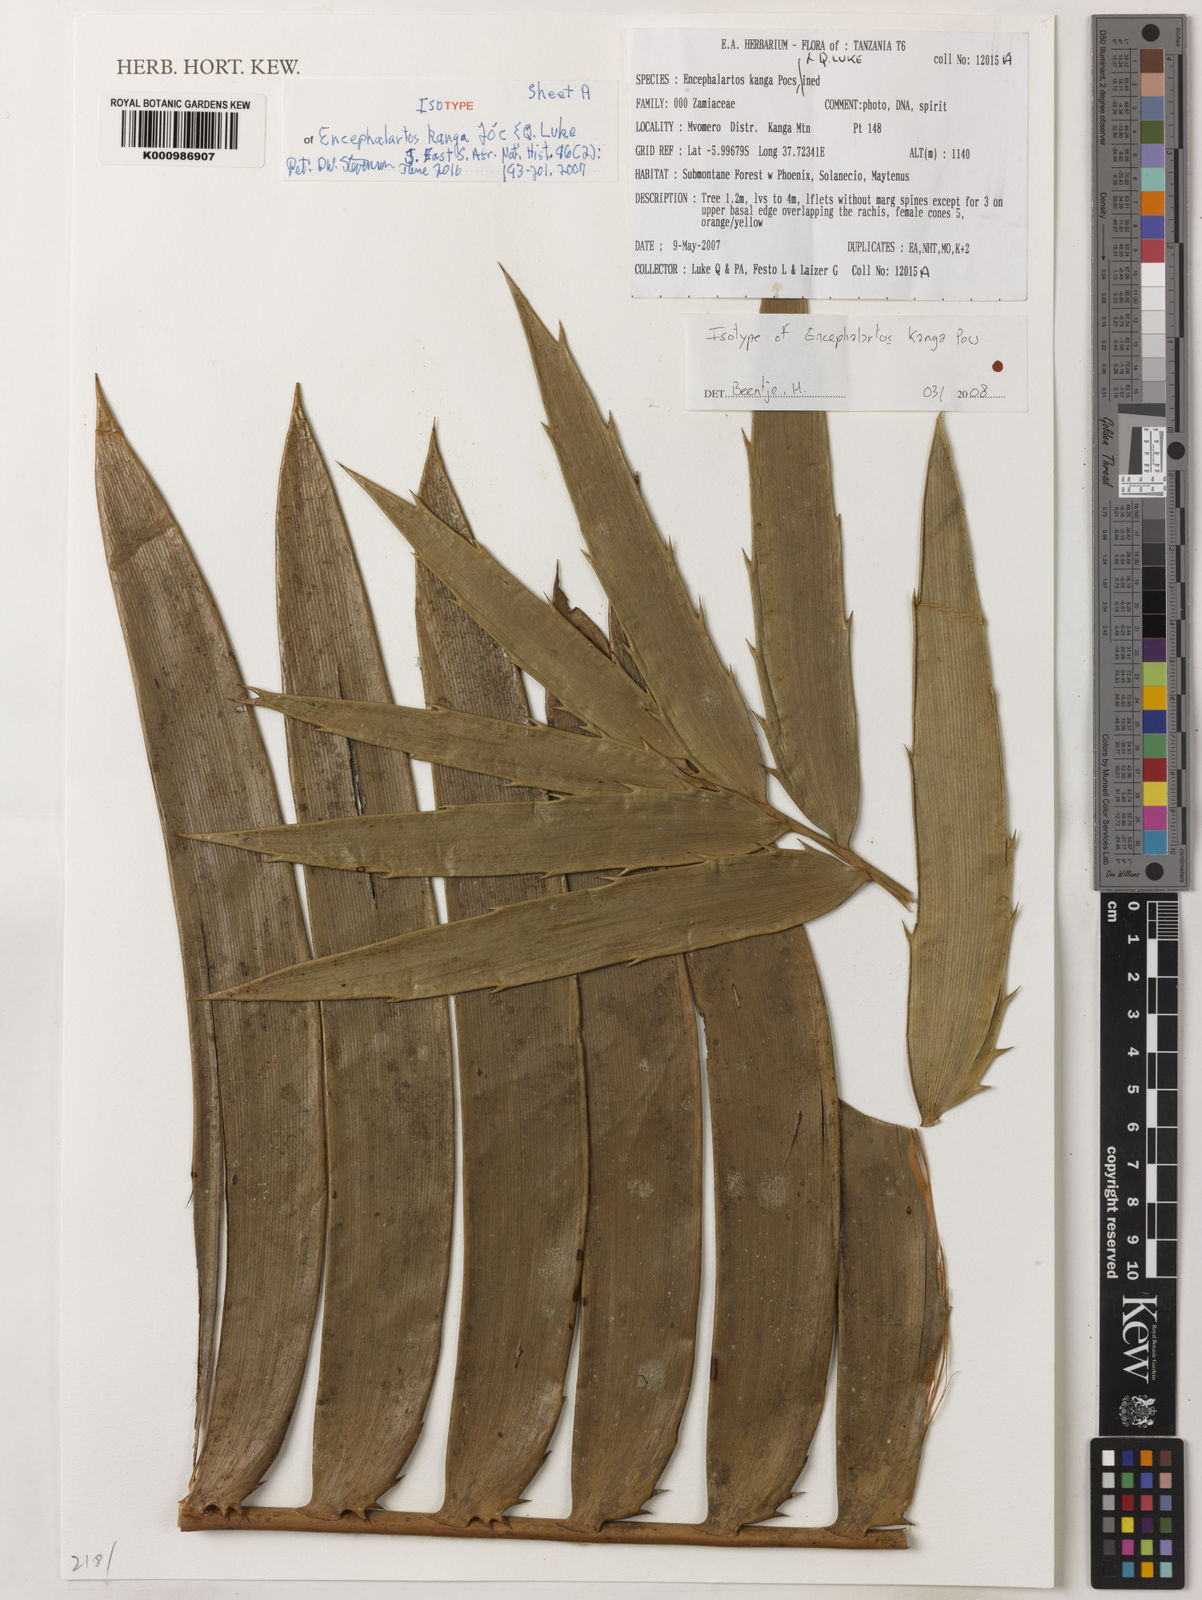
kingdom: Plantae
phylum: Tracheophyta
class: Cycadopsida
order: Cycadales
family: Zamiaceae
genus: Encephalartos
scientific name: Encephalartos
